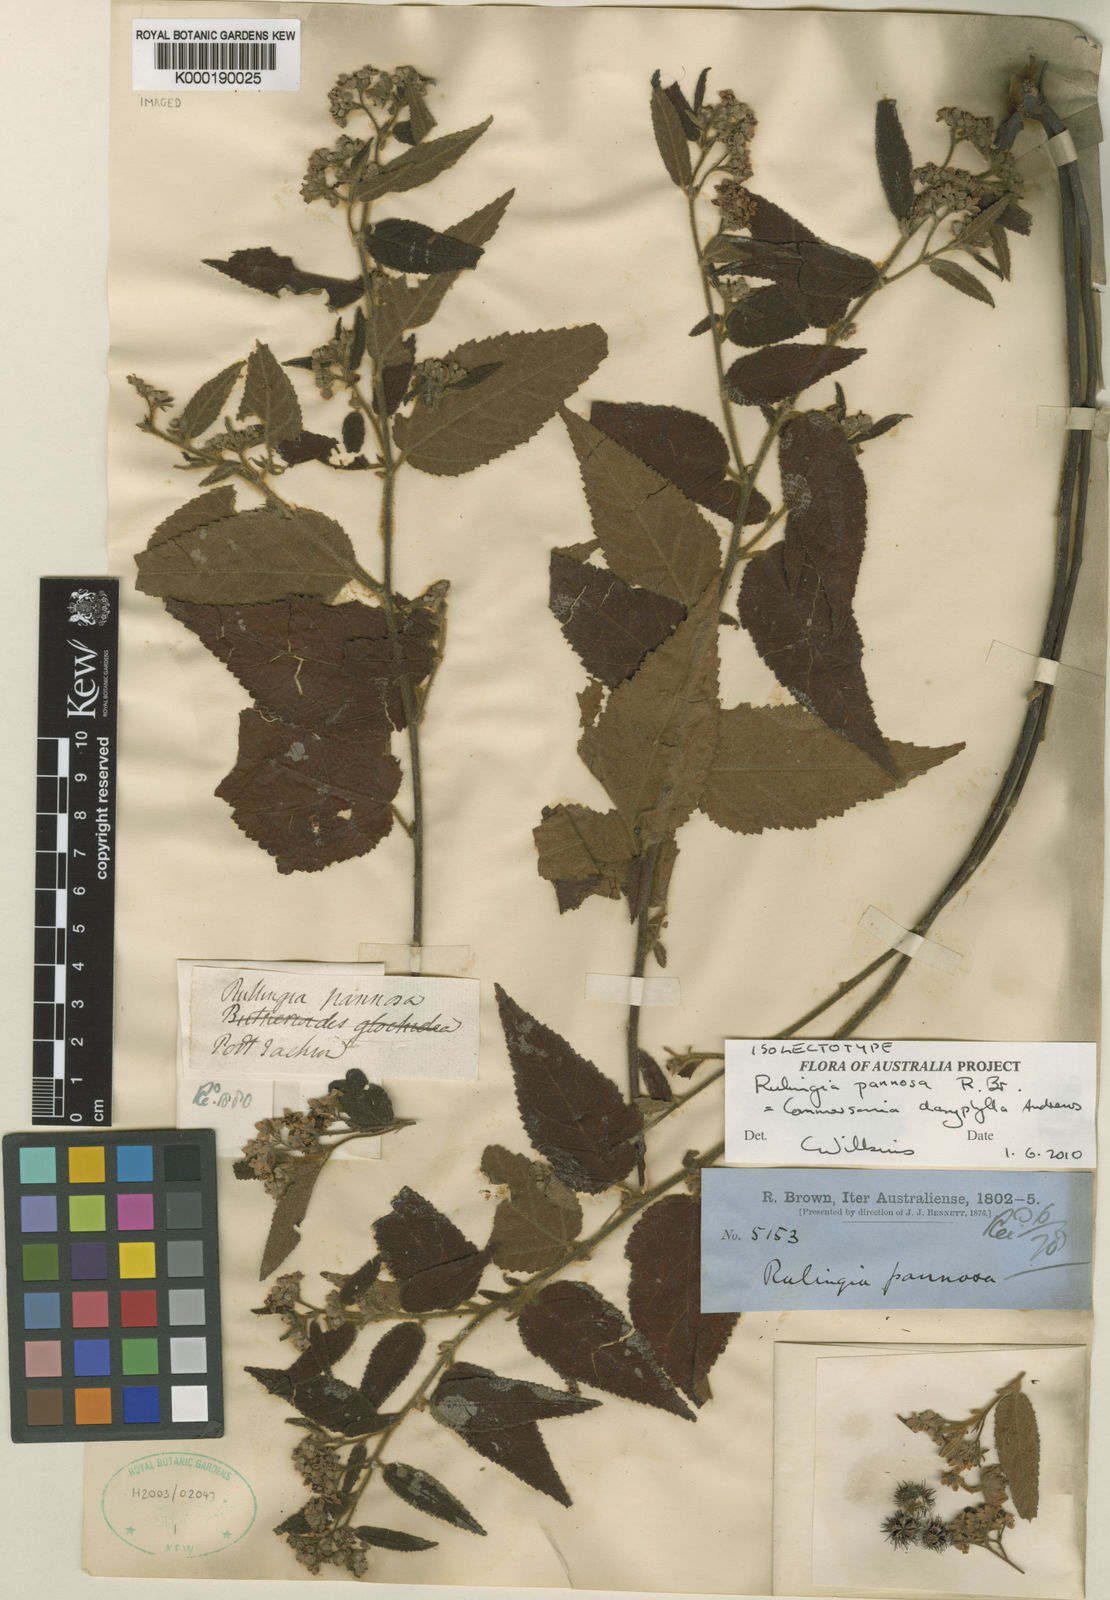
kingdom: Plantae
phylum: Tracheophyta
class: Magnoliopsida
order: Malvales
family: Malvaceae
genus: Commersonia
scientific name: Commersonia dasyphylla
